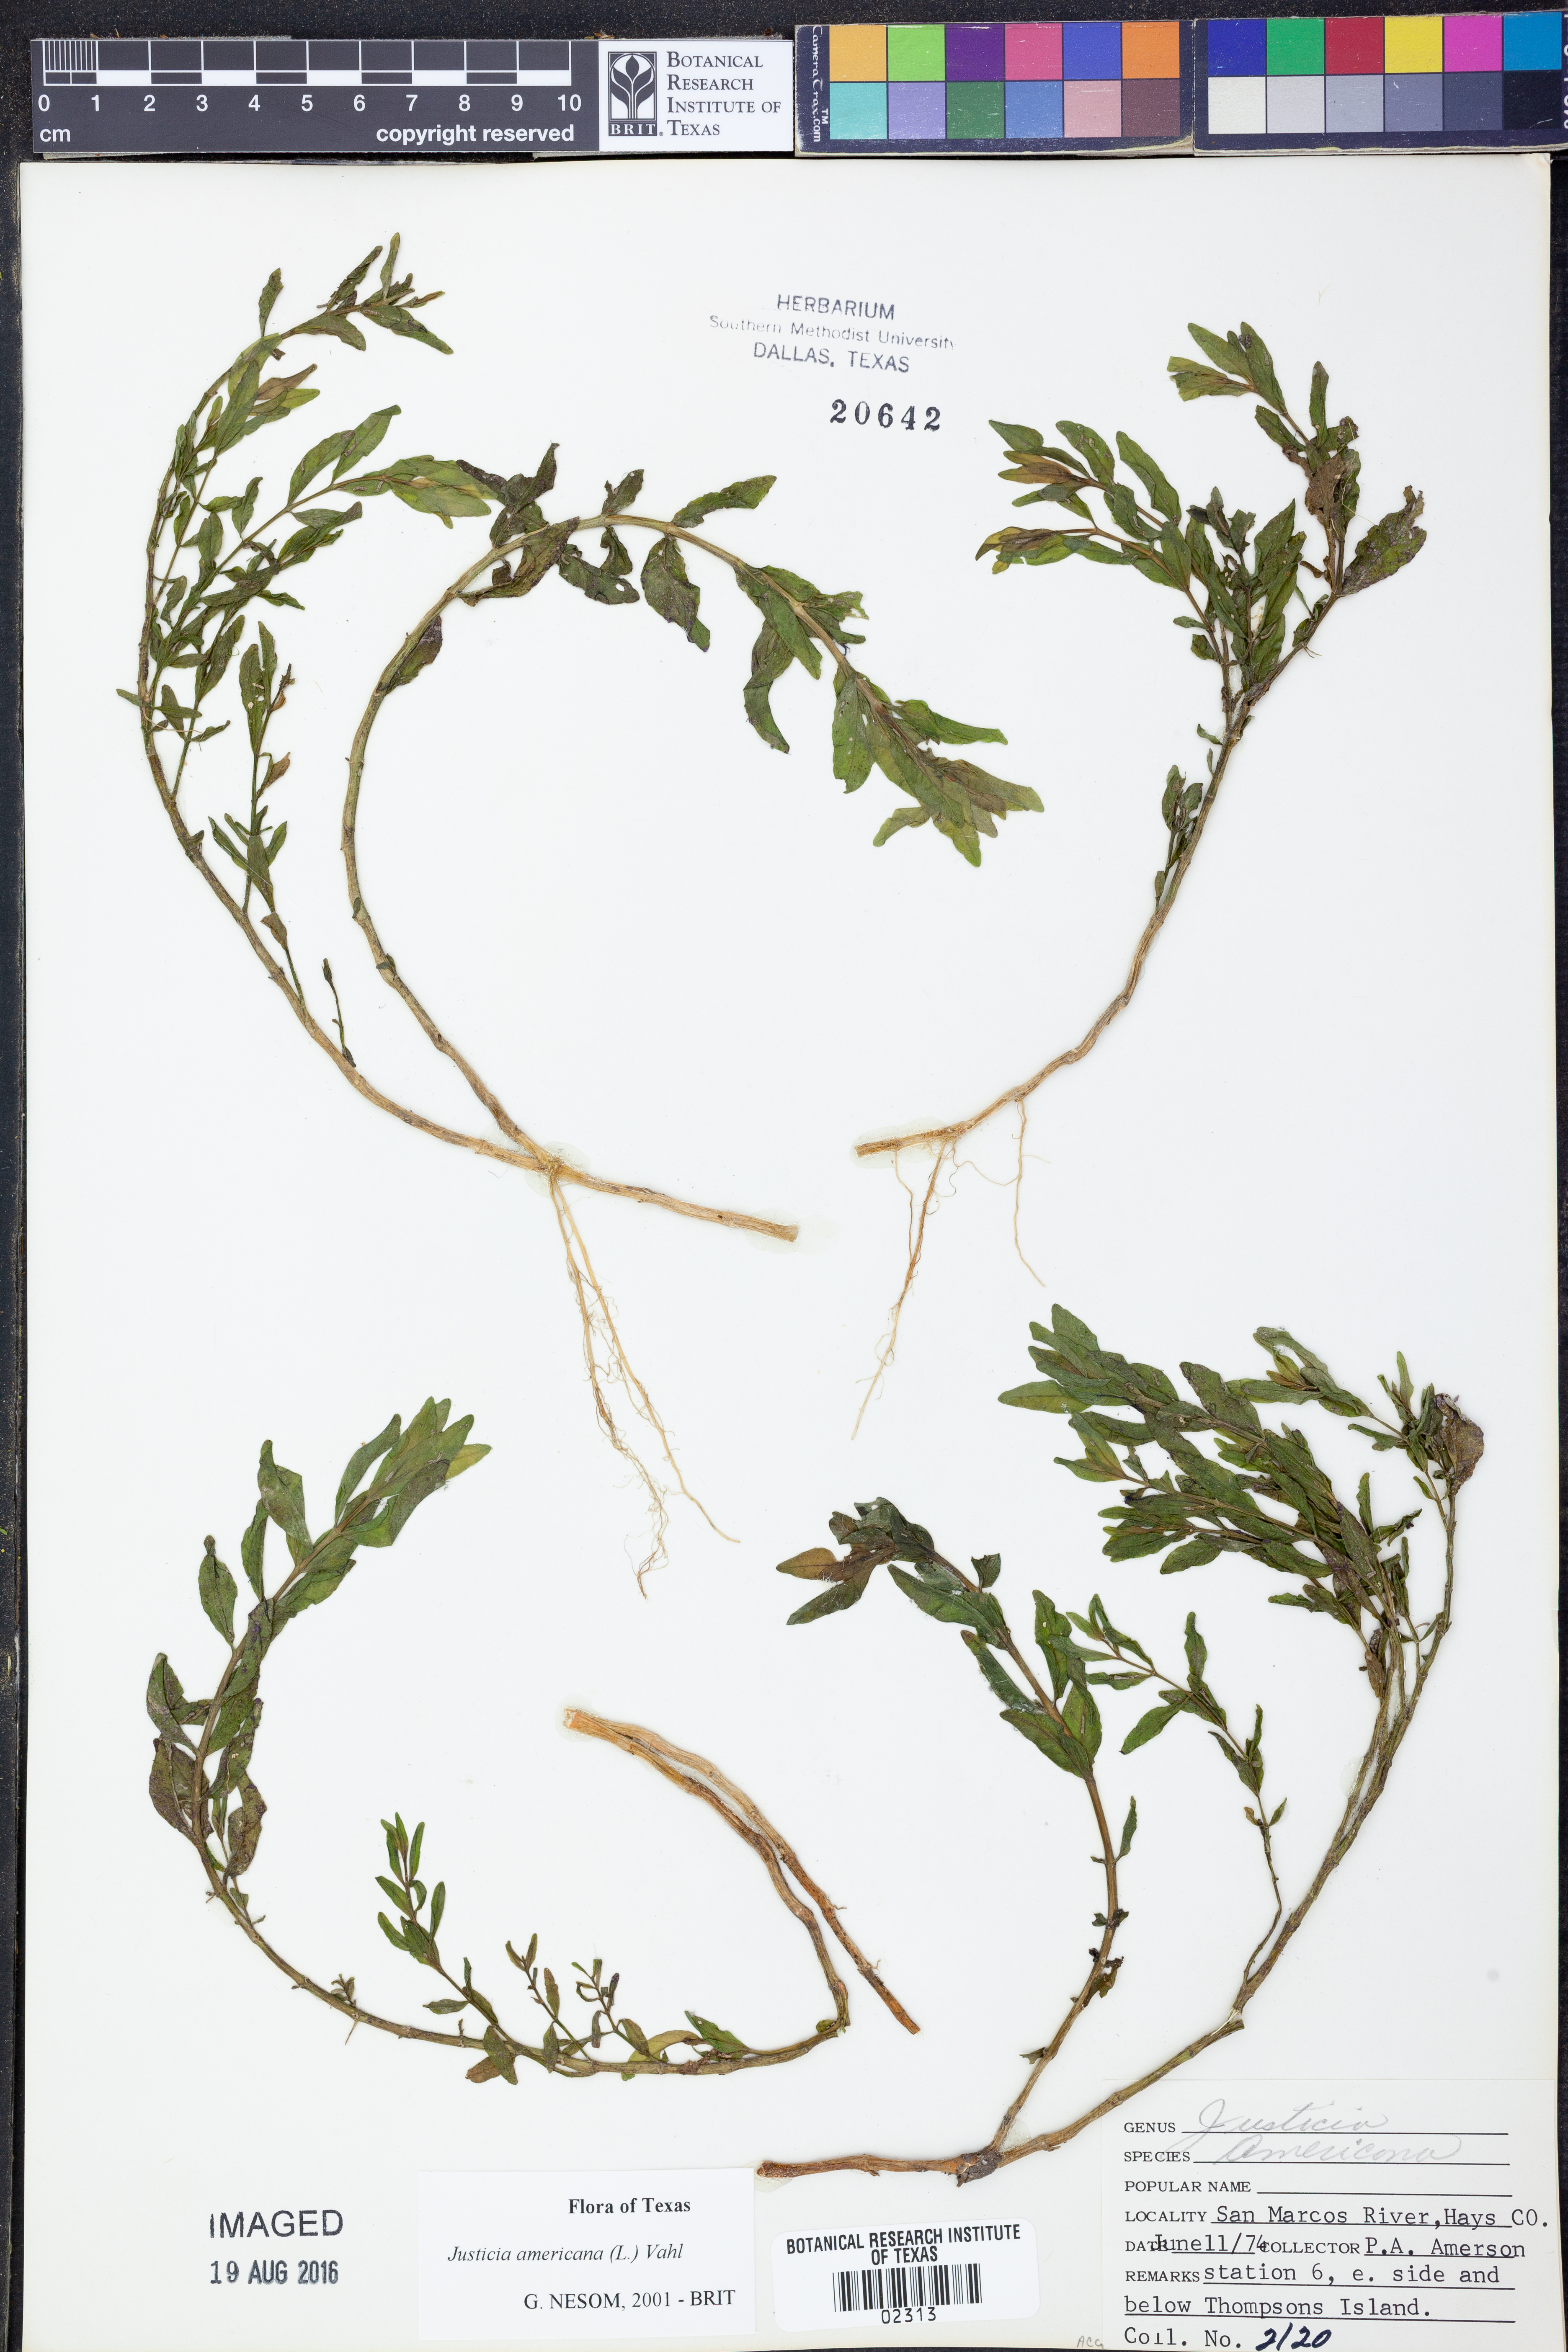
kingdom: Plantae
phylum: Tracheophyta
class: Magnoliopsida
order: Lamiales
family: Acanthaceae
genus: Dianthera
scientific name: Dianthera americana
